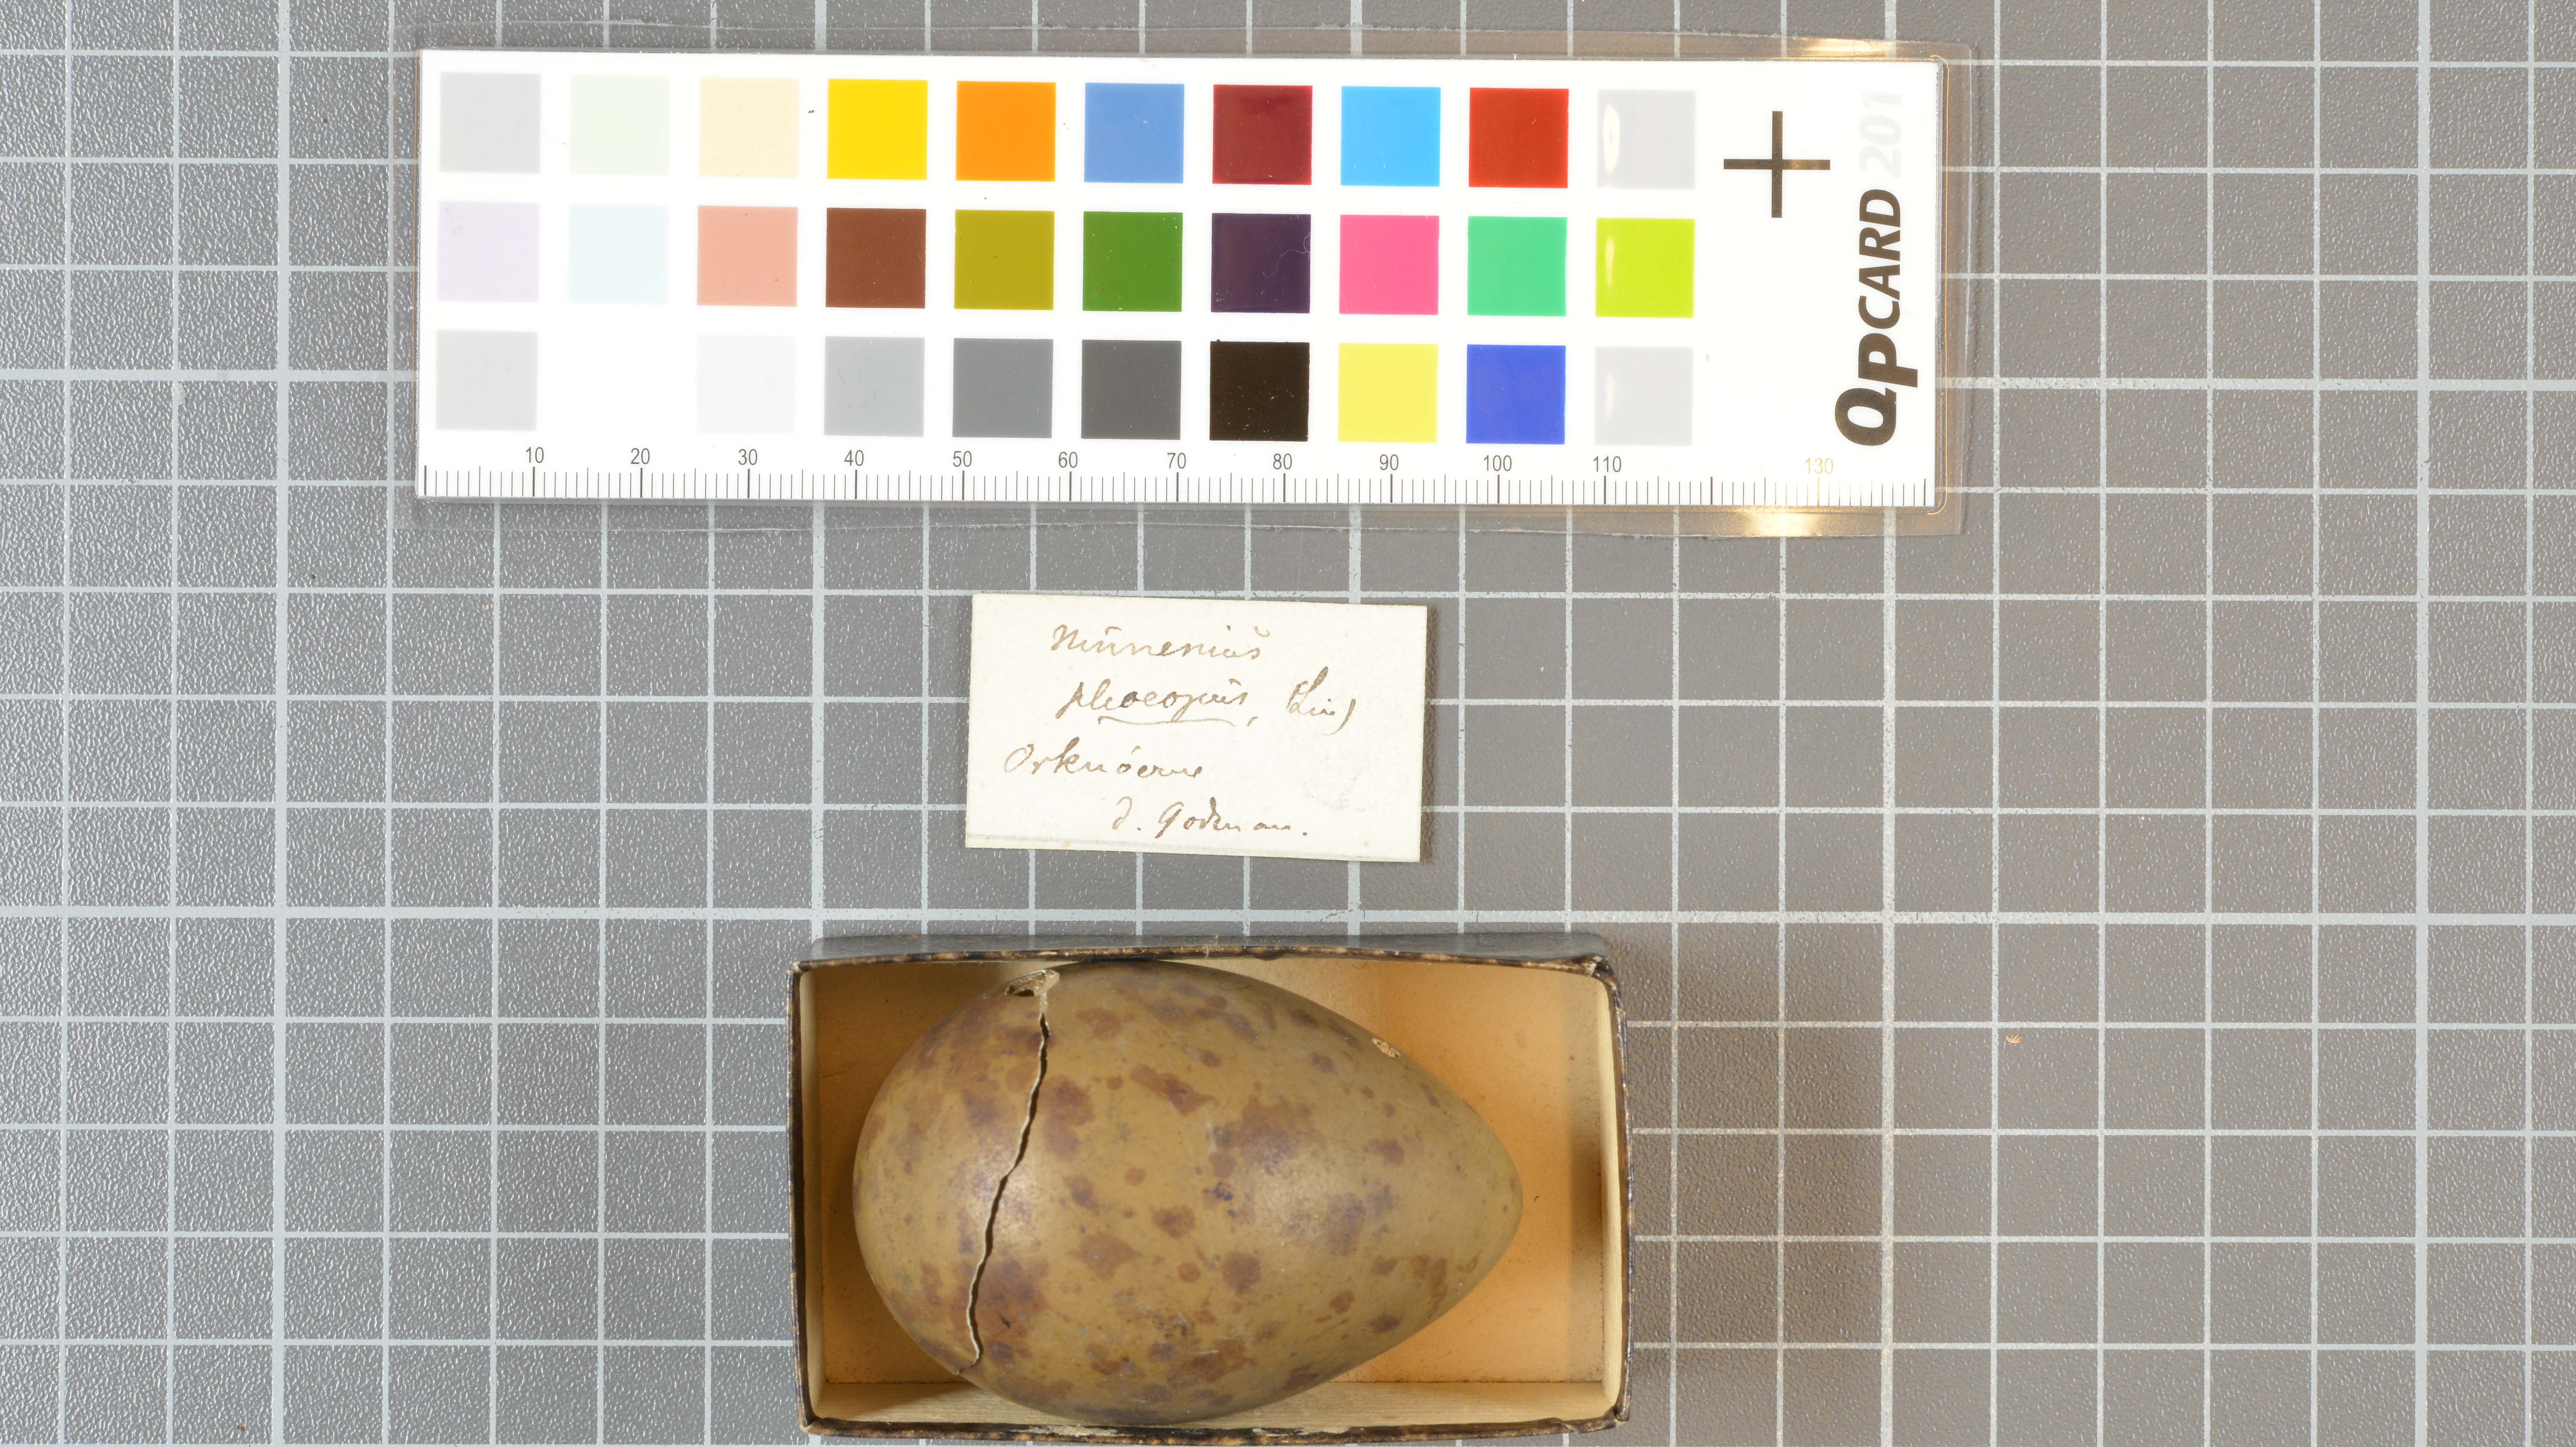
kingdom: Animalia
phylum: Chordata
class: Aves
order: Charadriiformes
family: Scolopacidae
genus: Numenius
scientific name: Numenius phaeopus
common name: Whimbrel
